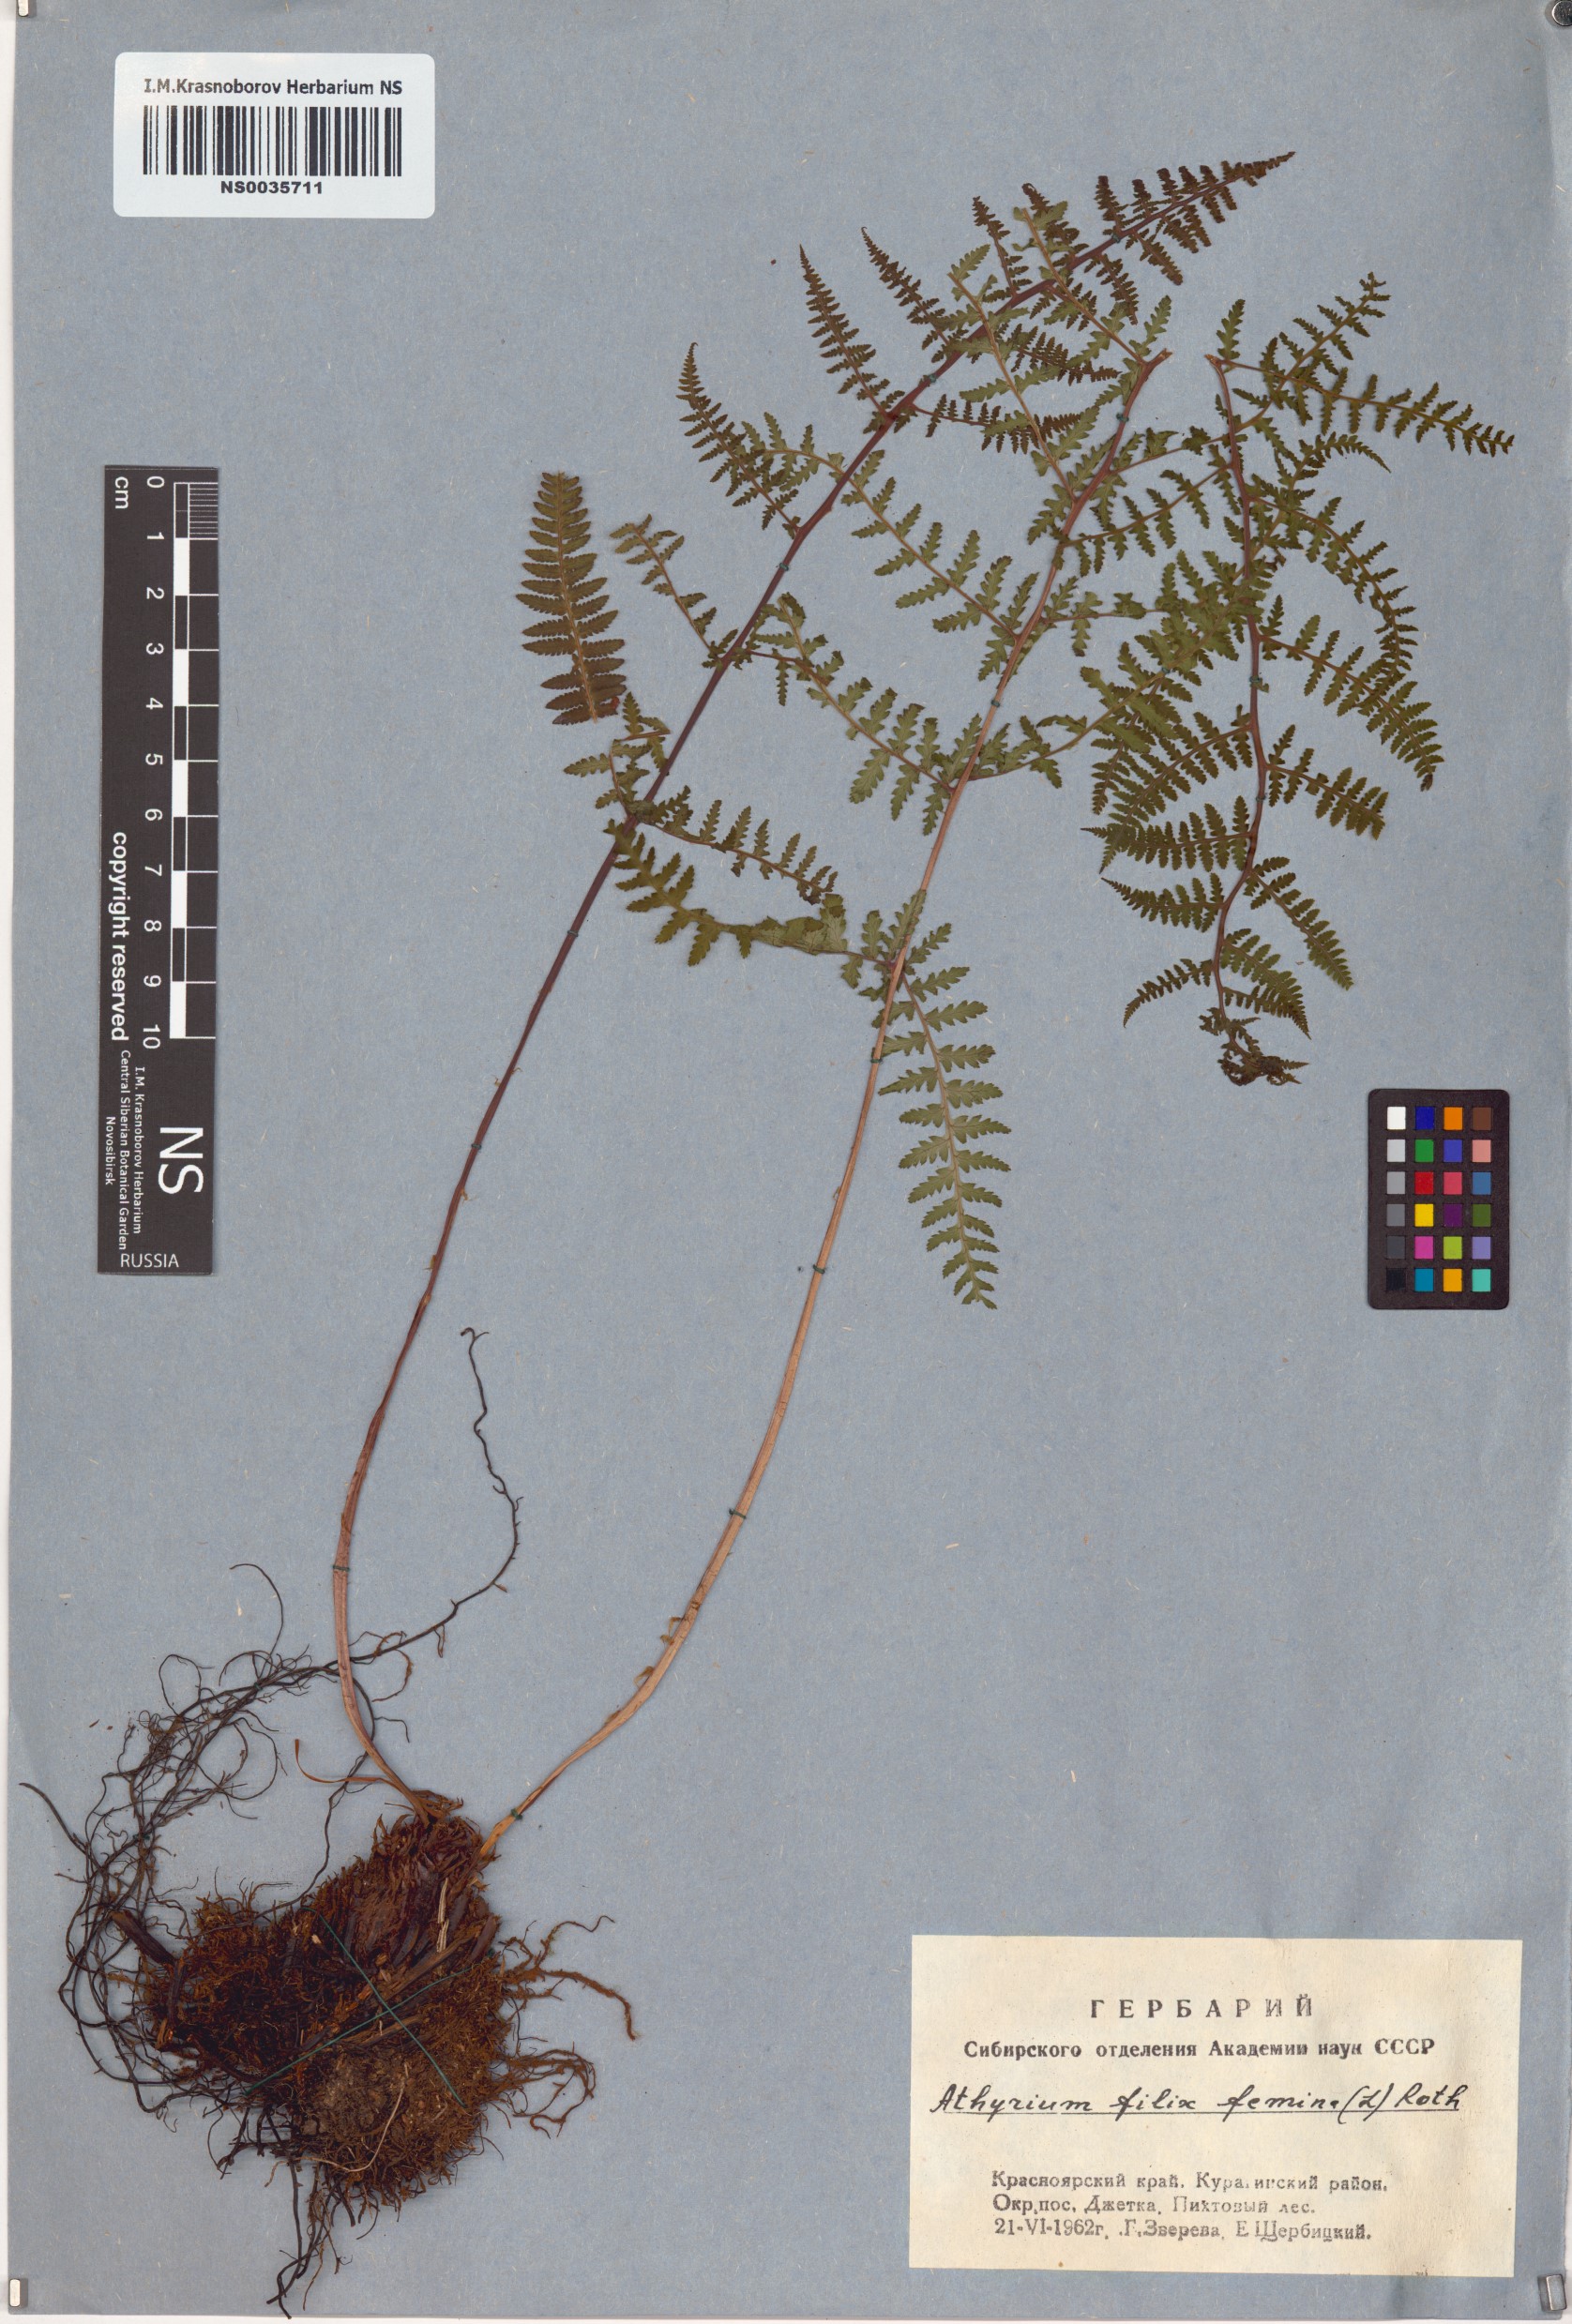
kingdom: Plantae
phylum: Tracheophyta
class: Polypodiopsida
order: Polypodiales
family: Athyriaceae
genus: Athyrium
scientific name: Athyrium filix-femina
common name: Lady fern
